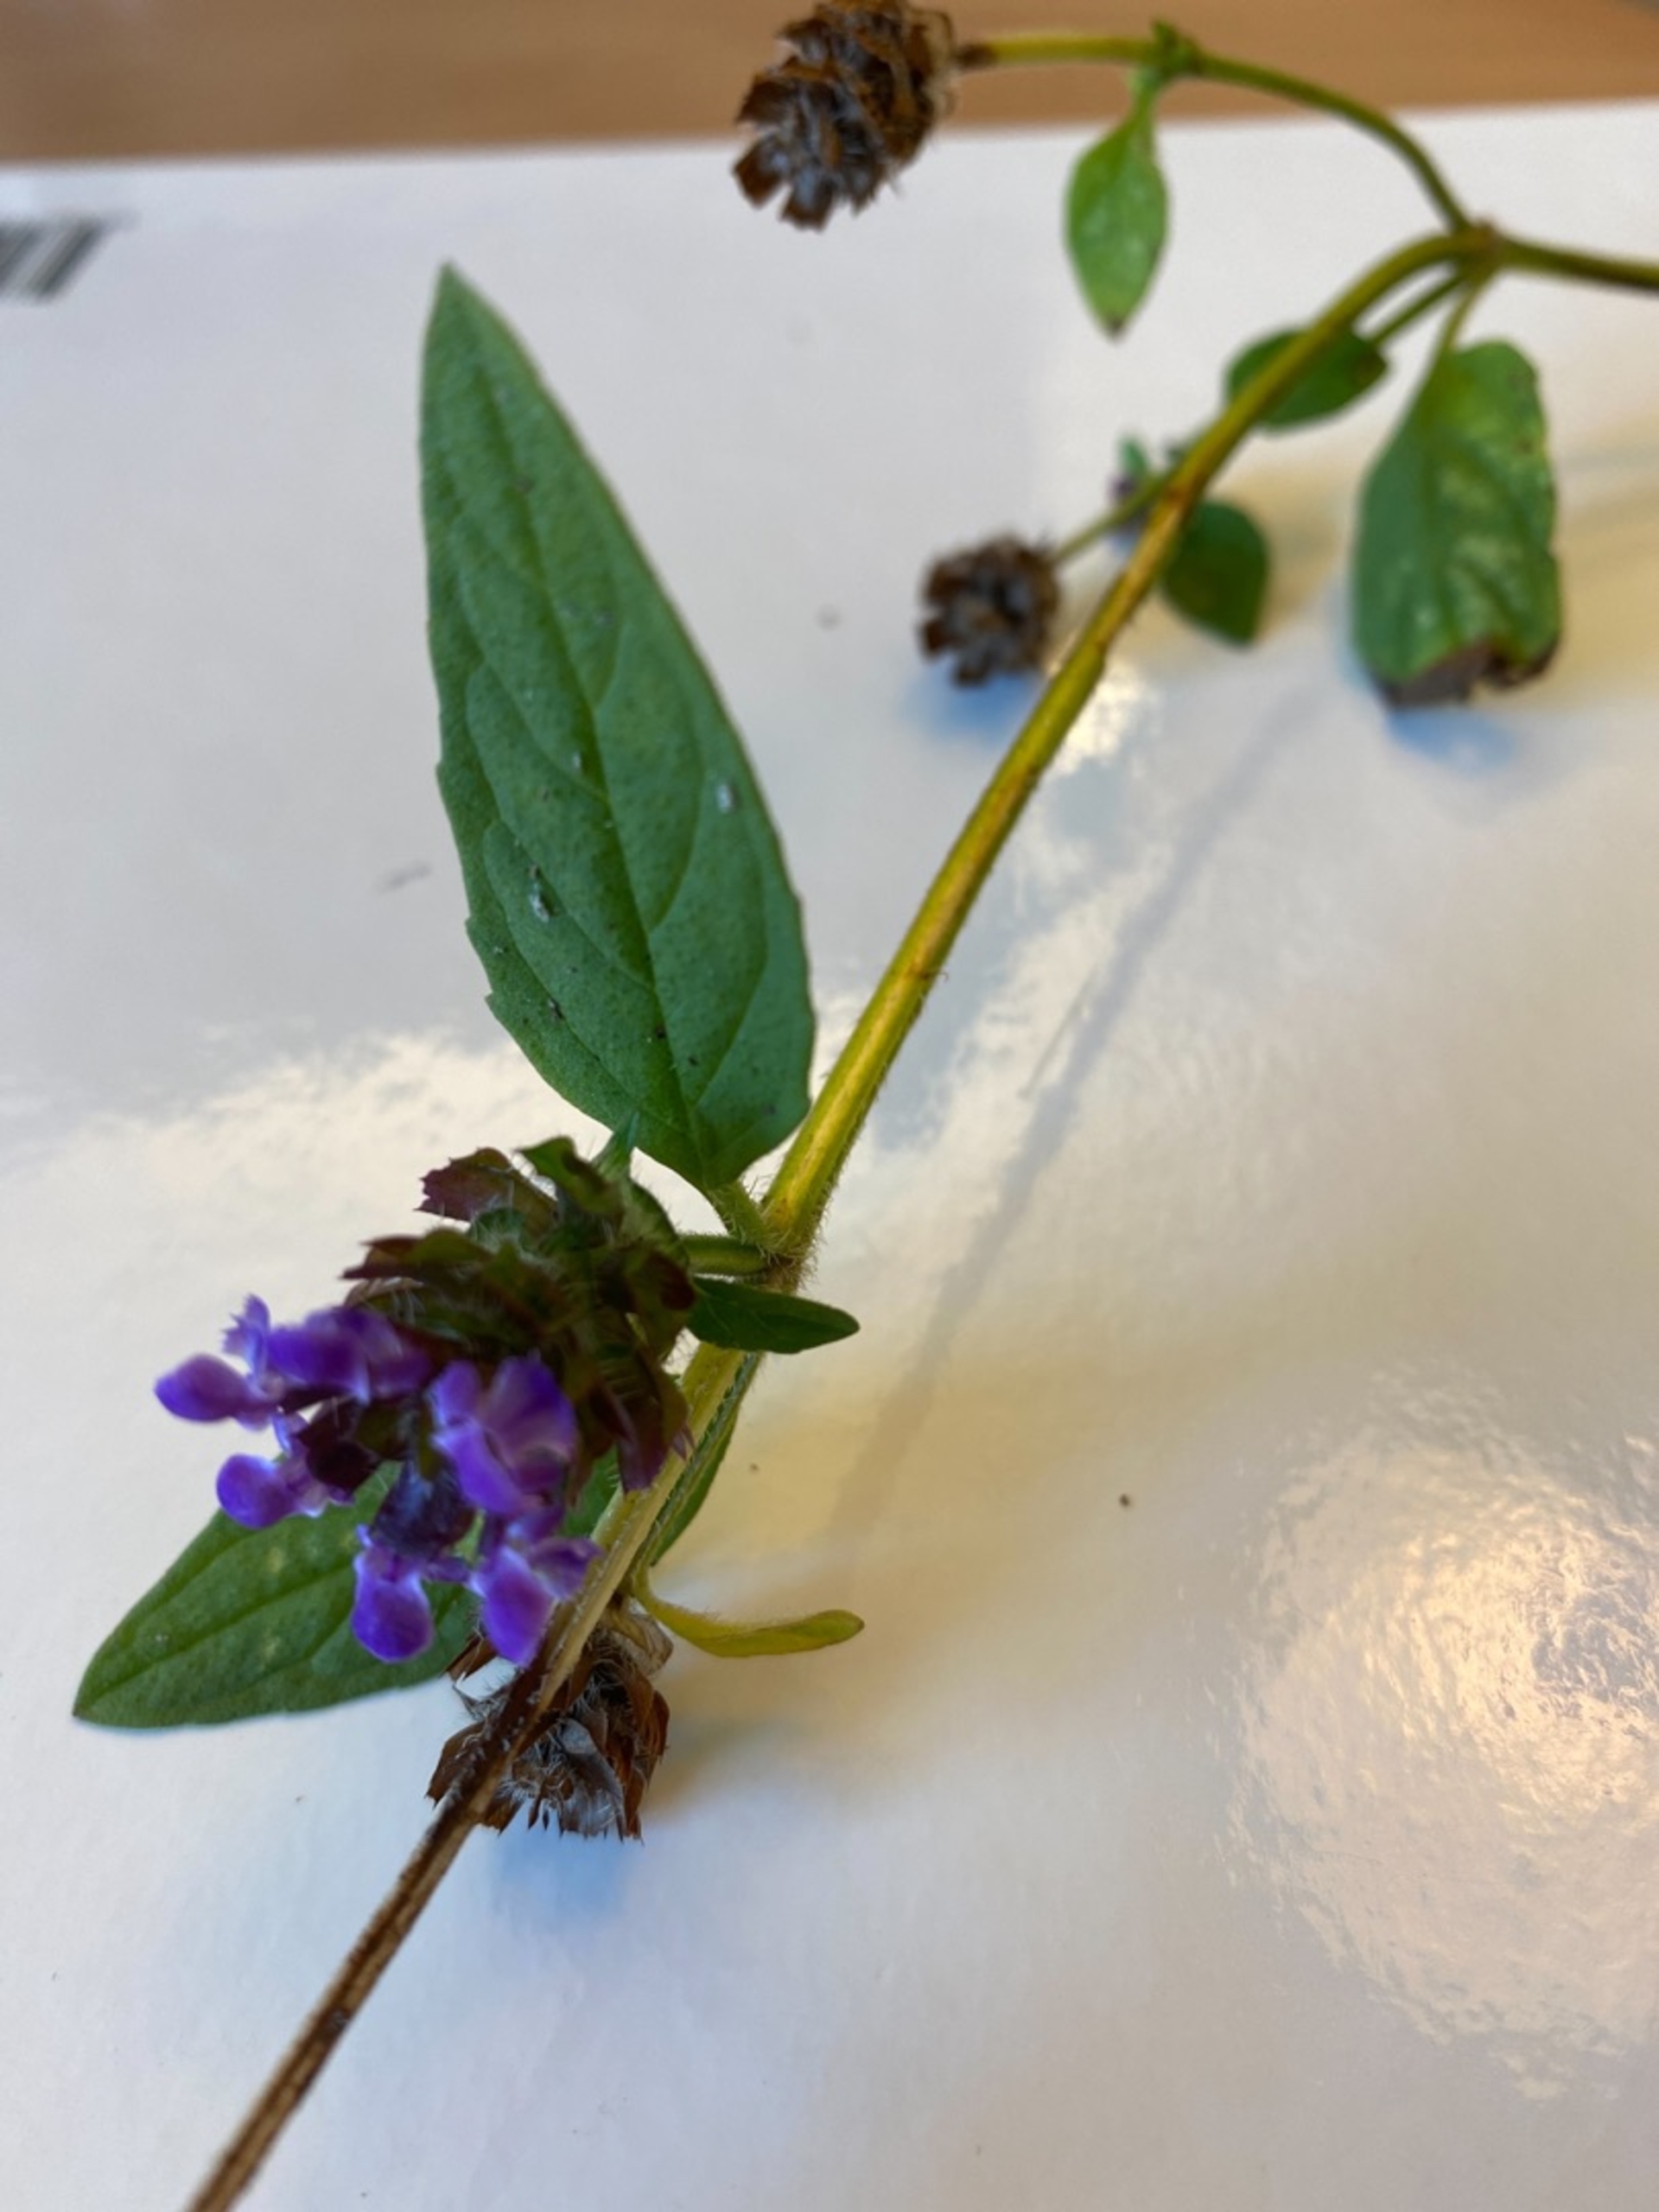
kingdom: Plantae
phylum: Tracheophyta
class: Magnoliopsida
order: Lamiales
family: Lamiaceae
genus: Prunella
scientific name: Prunella vulgaris
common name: Almindelig brunelle
